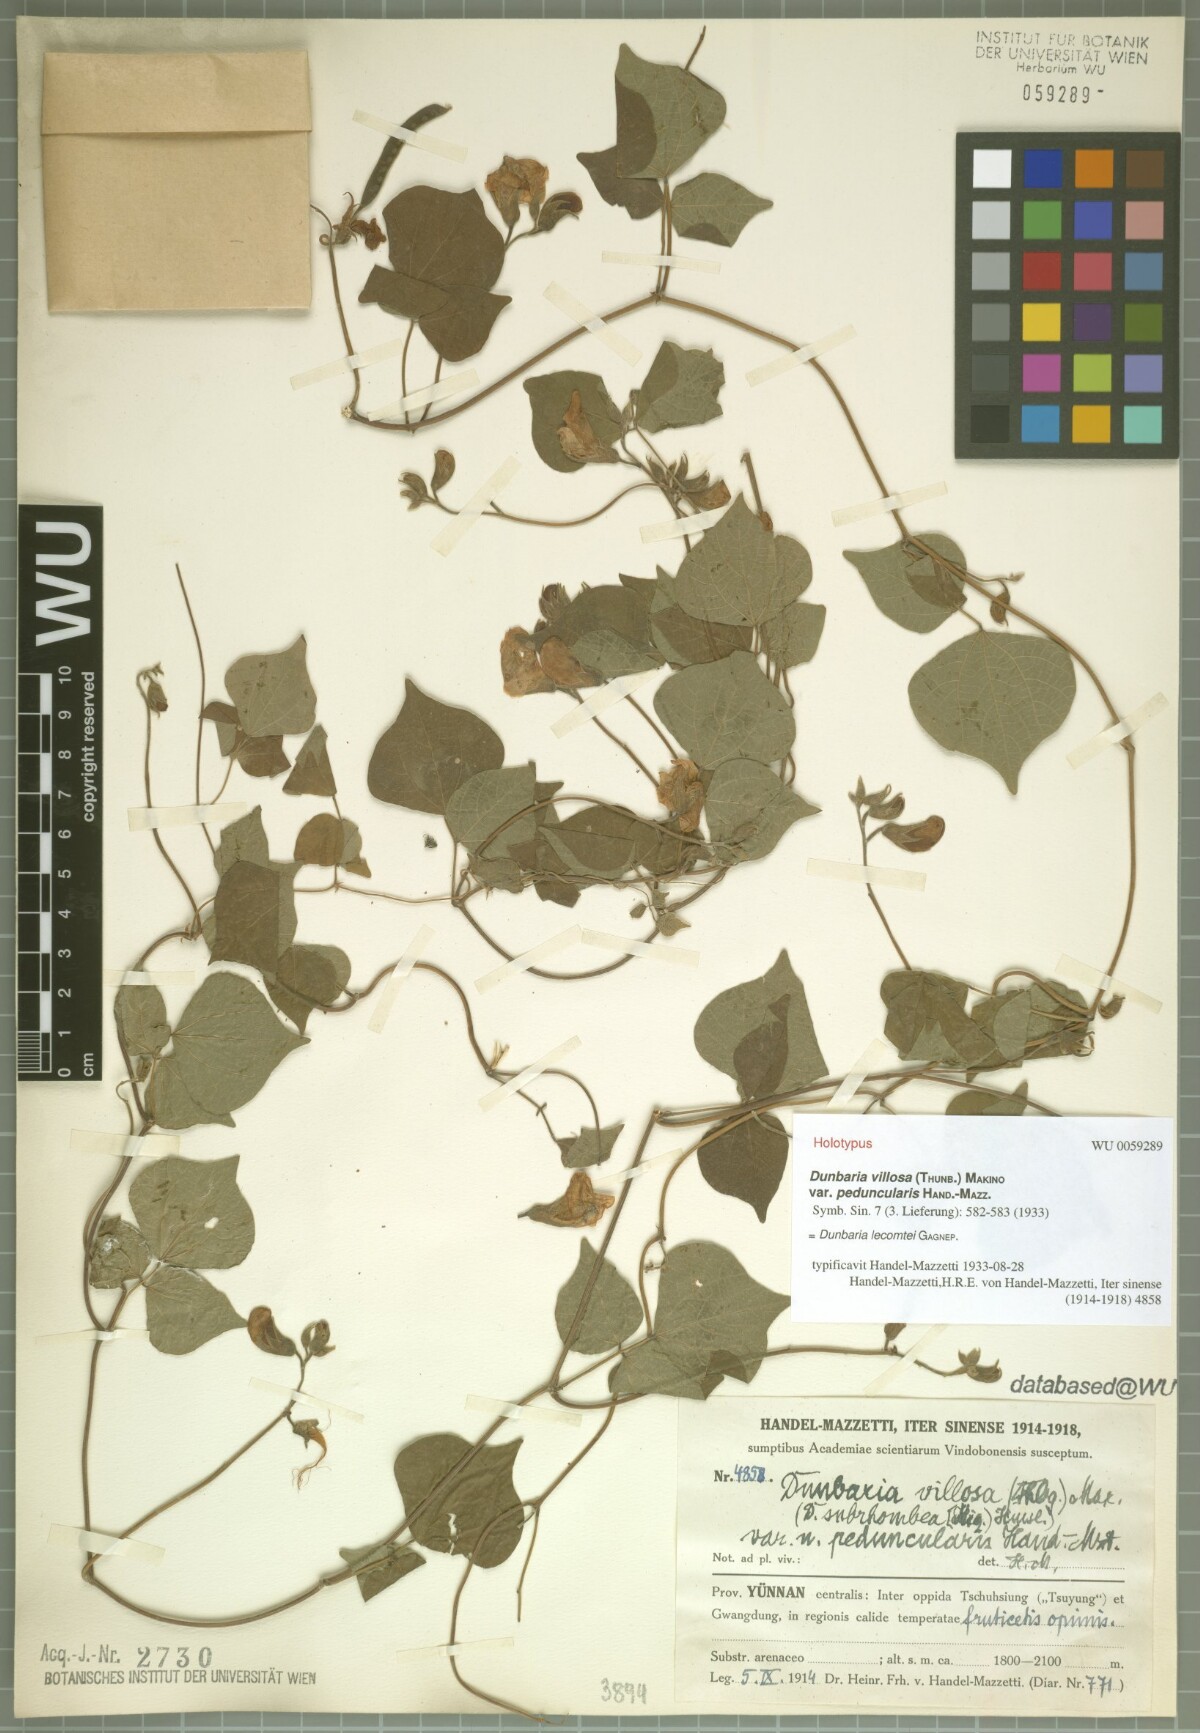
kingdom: Plantae
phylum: Tracheophyta
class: Magnoliopsida
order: Fabales
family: Fabaceae
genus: Dunbaria
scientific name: Dunbaria lecomtei
